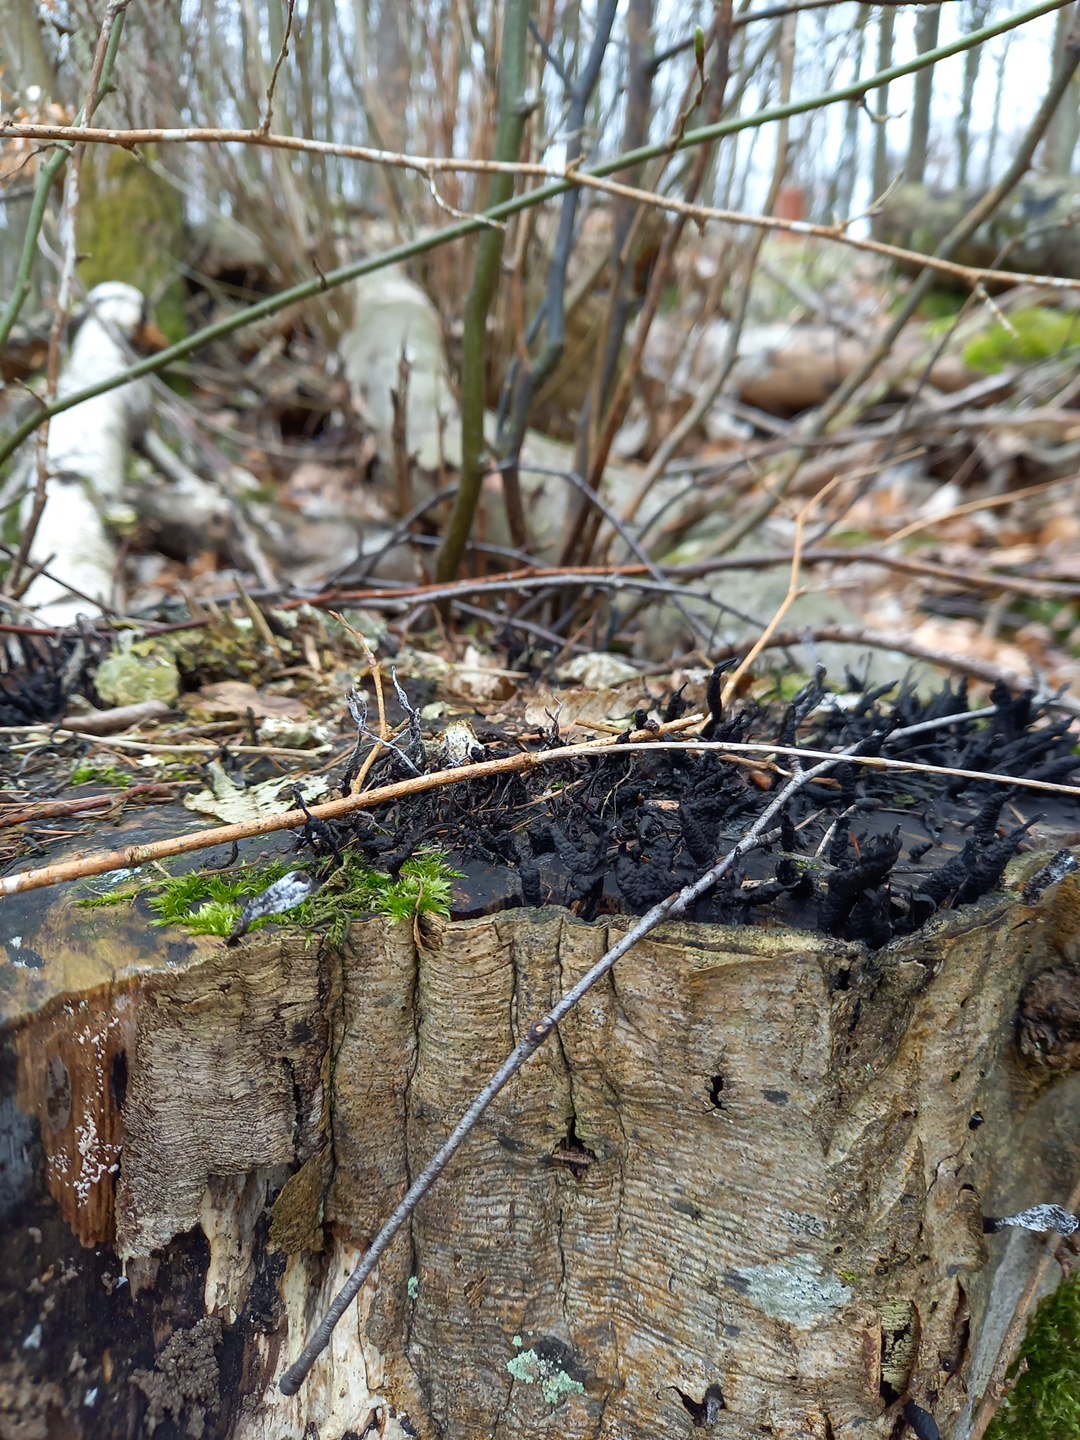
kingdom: Fungi
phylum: Ascomycota
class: Sordariomycetes
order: Xylariales
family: Xylariaceae
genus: Xylaria
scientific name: Xylaria hypoxylon
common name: grenet stødsvamp
